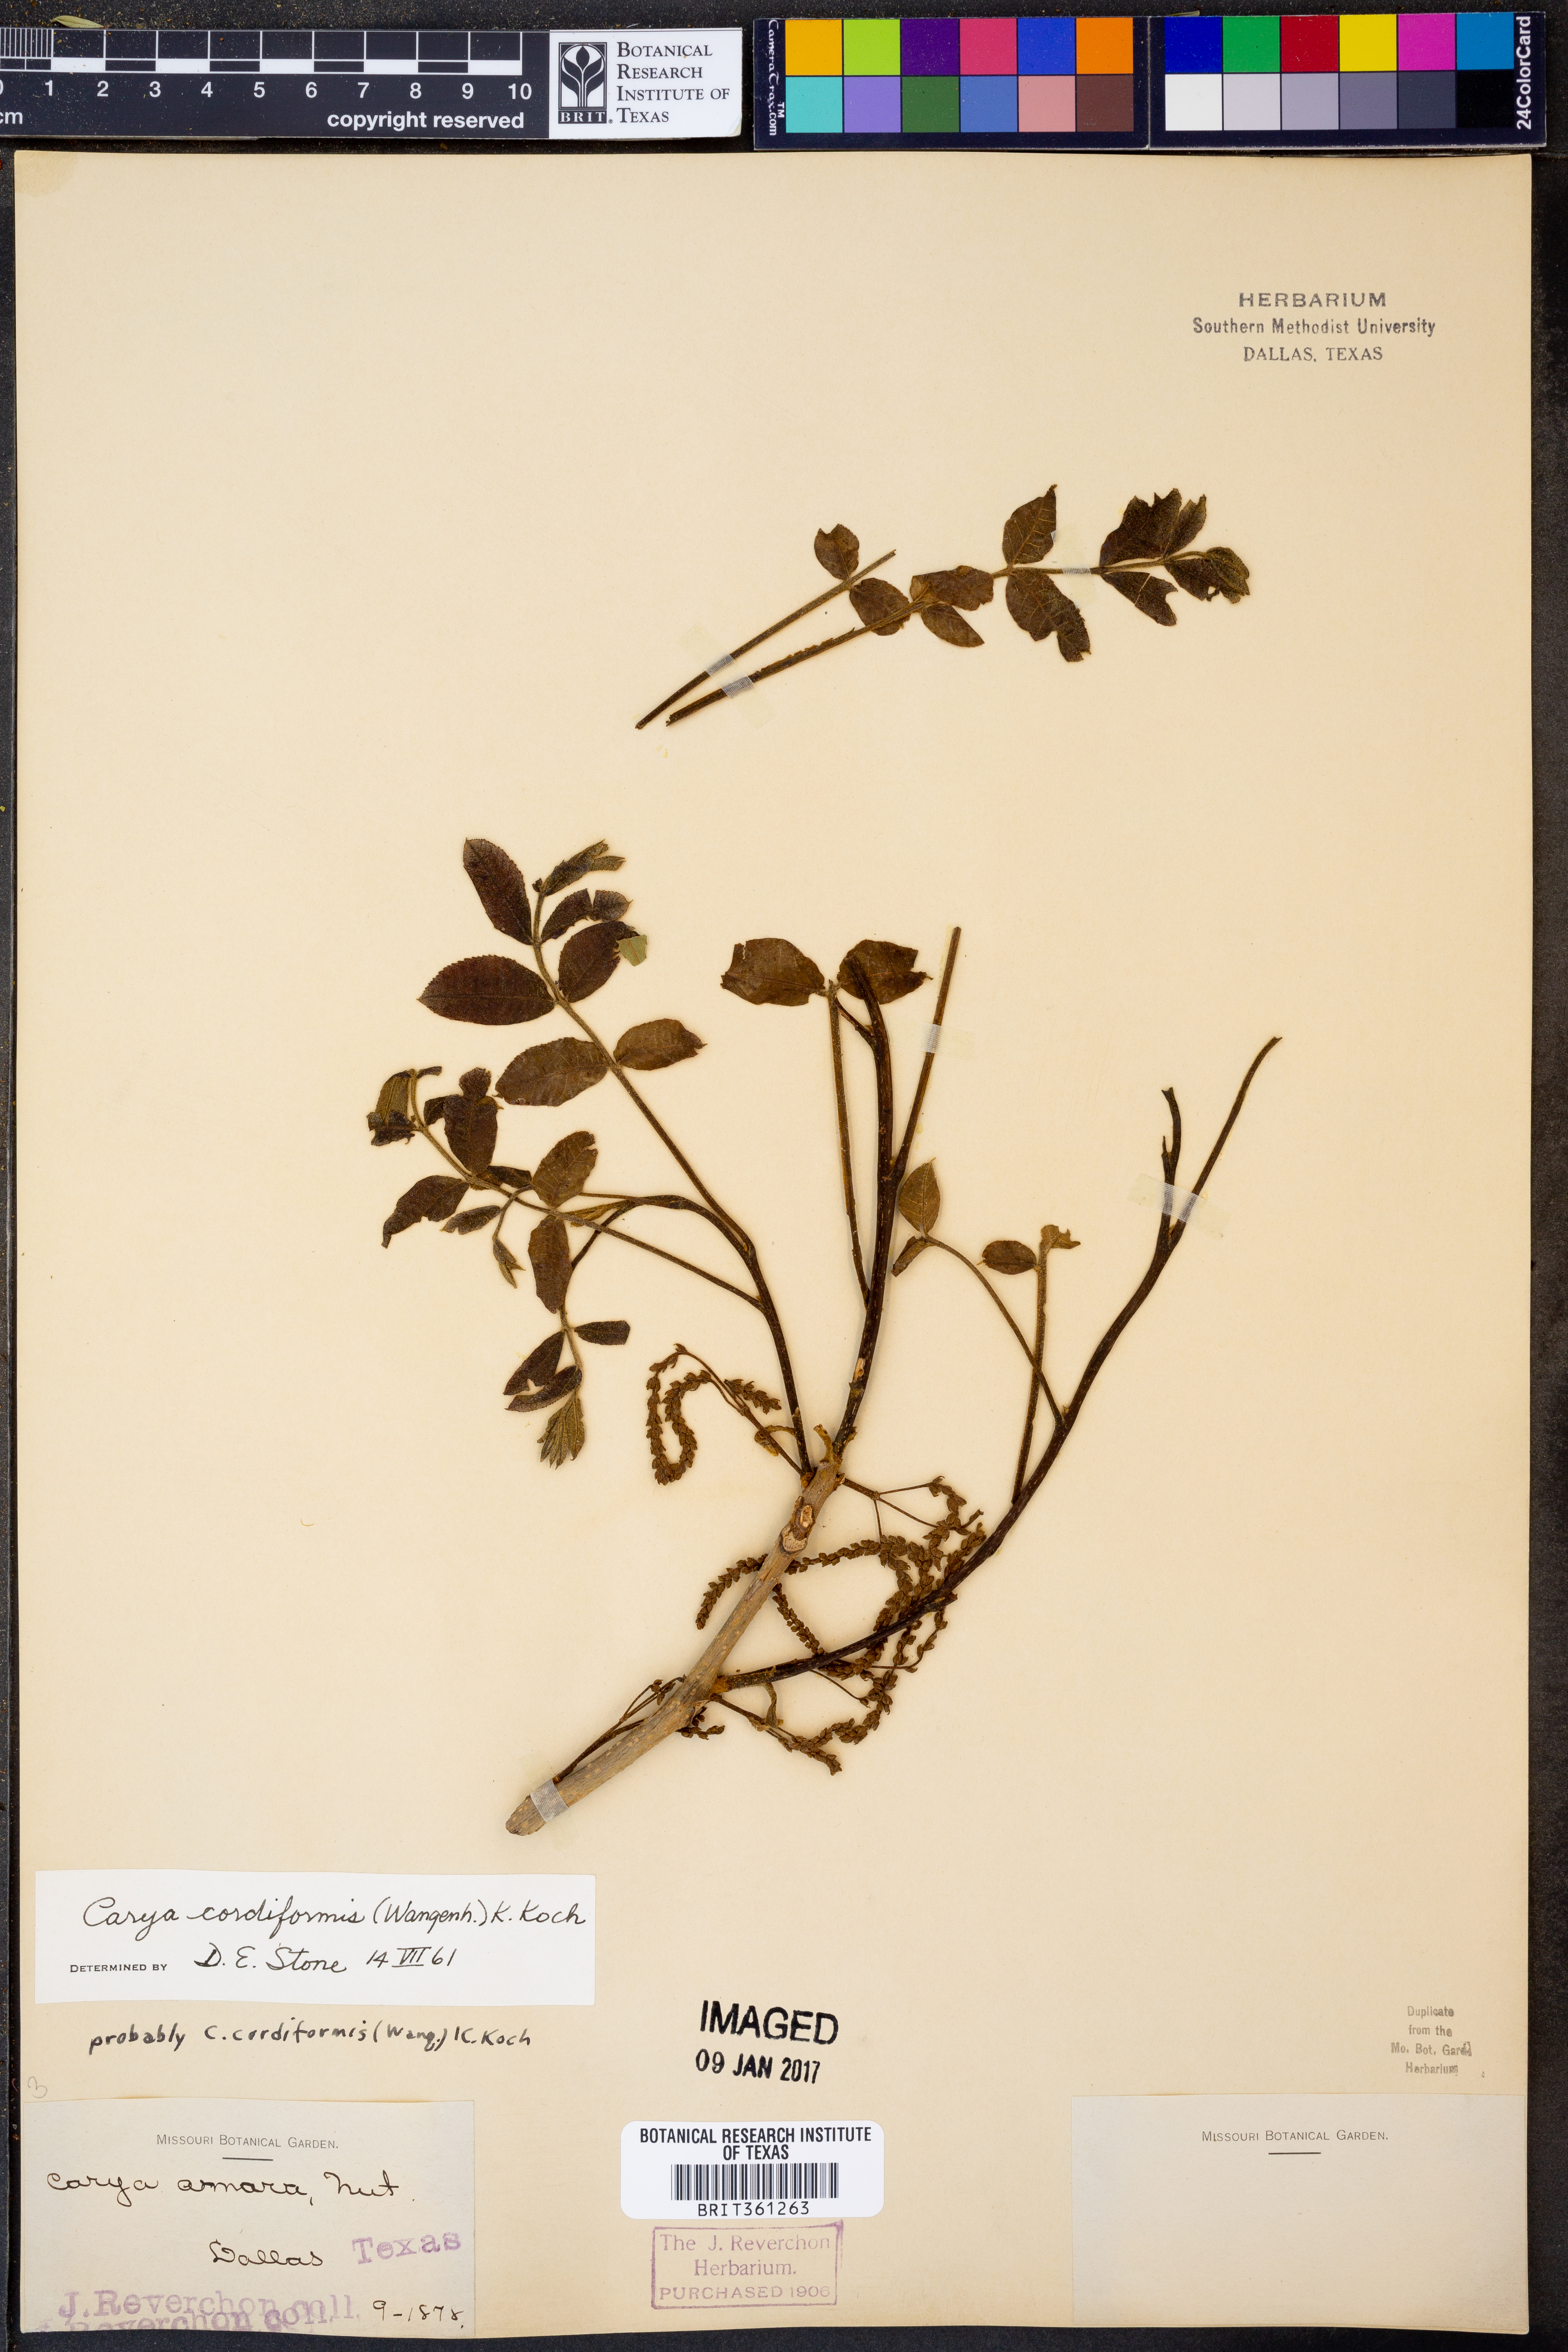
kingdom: Plantae
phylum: Tracheophyta
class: Magnoliopsida
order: Fagales
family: Juglandaceae
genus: Carya
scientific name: Carya cordiformis
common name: Bitternut hickory
